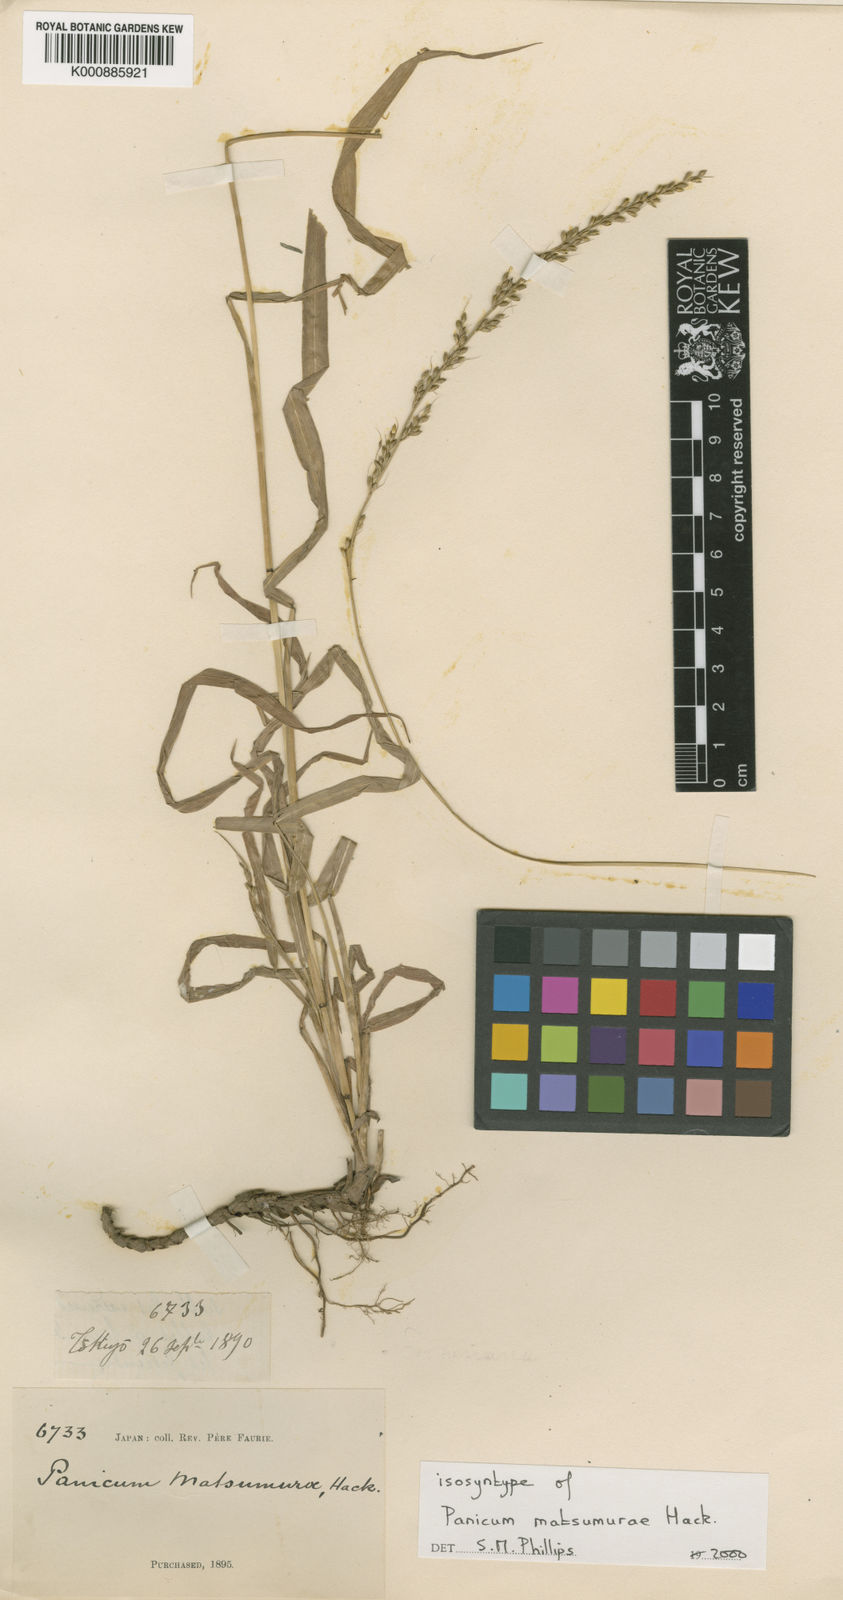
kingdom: Plantae
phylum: Tracheophyta
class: Liliopsida
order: Poales
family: Poaceae
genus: Setaria
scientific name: Setaria chondrachne
